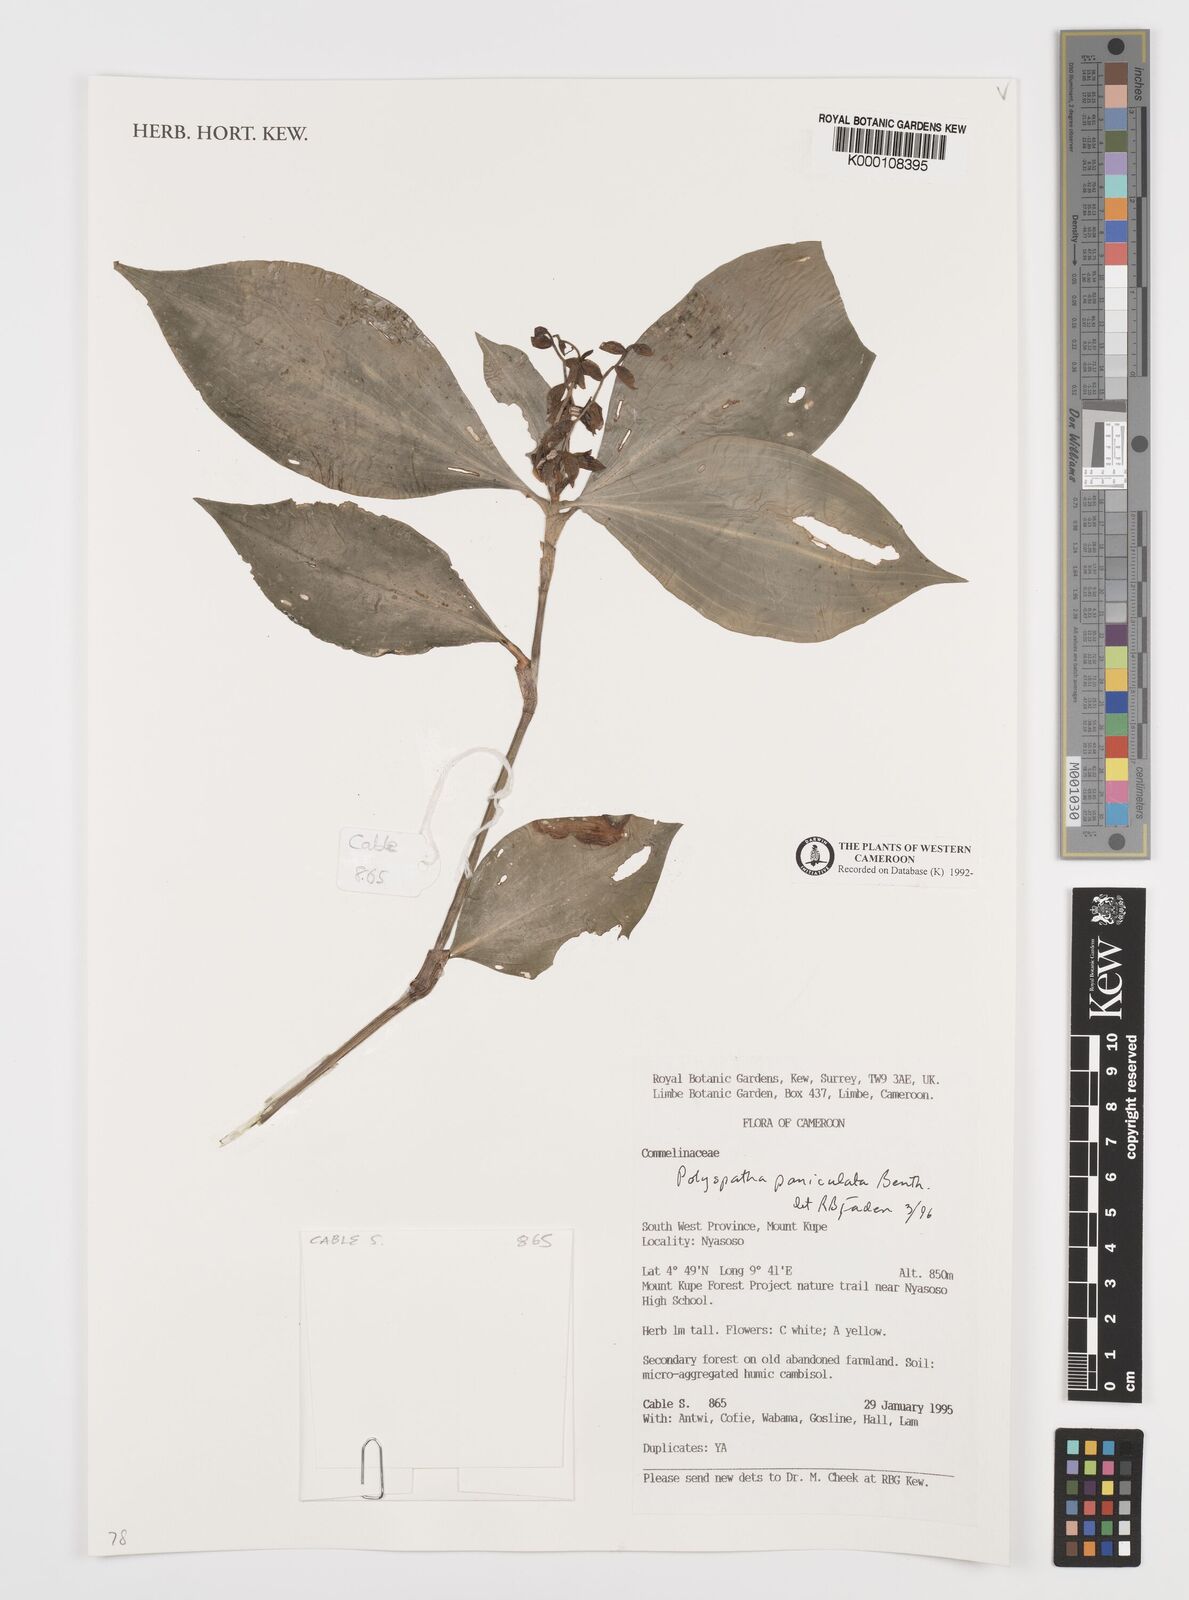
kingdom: Plantae
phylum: Tracheophyta
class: Liliopsida
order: Commelinales
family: Commelinaceae
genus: Polyspatha
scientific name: Polyspatha paniculata
